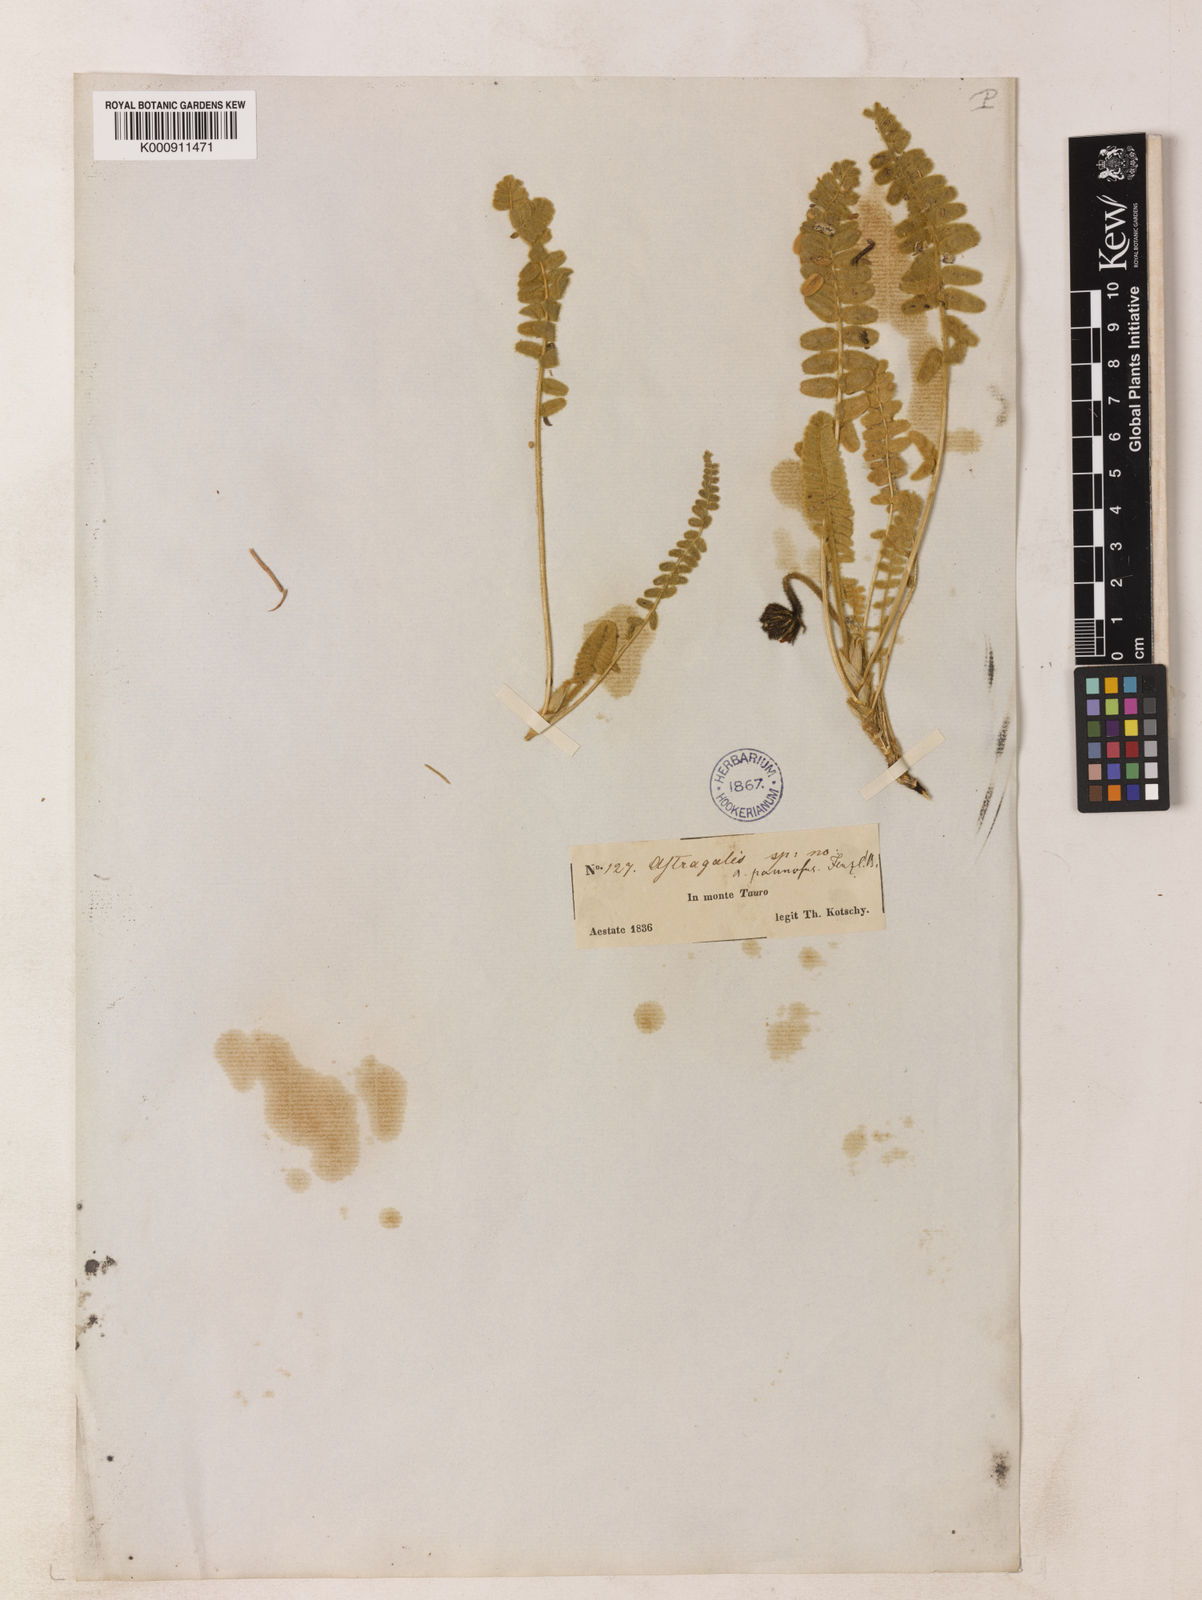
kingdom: Plantae
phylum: Tracheophyta
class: Magnoliopsida
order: Fabales
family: Fabaceae
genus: Astragalus
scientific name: Astragalus chrysochlorus
